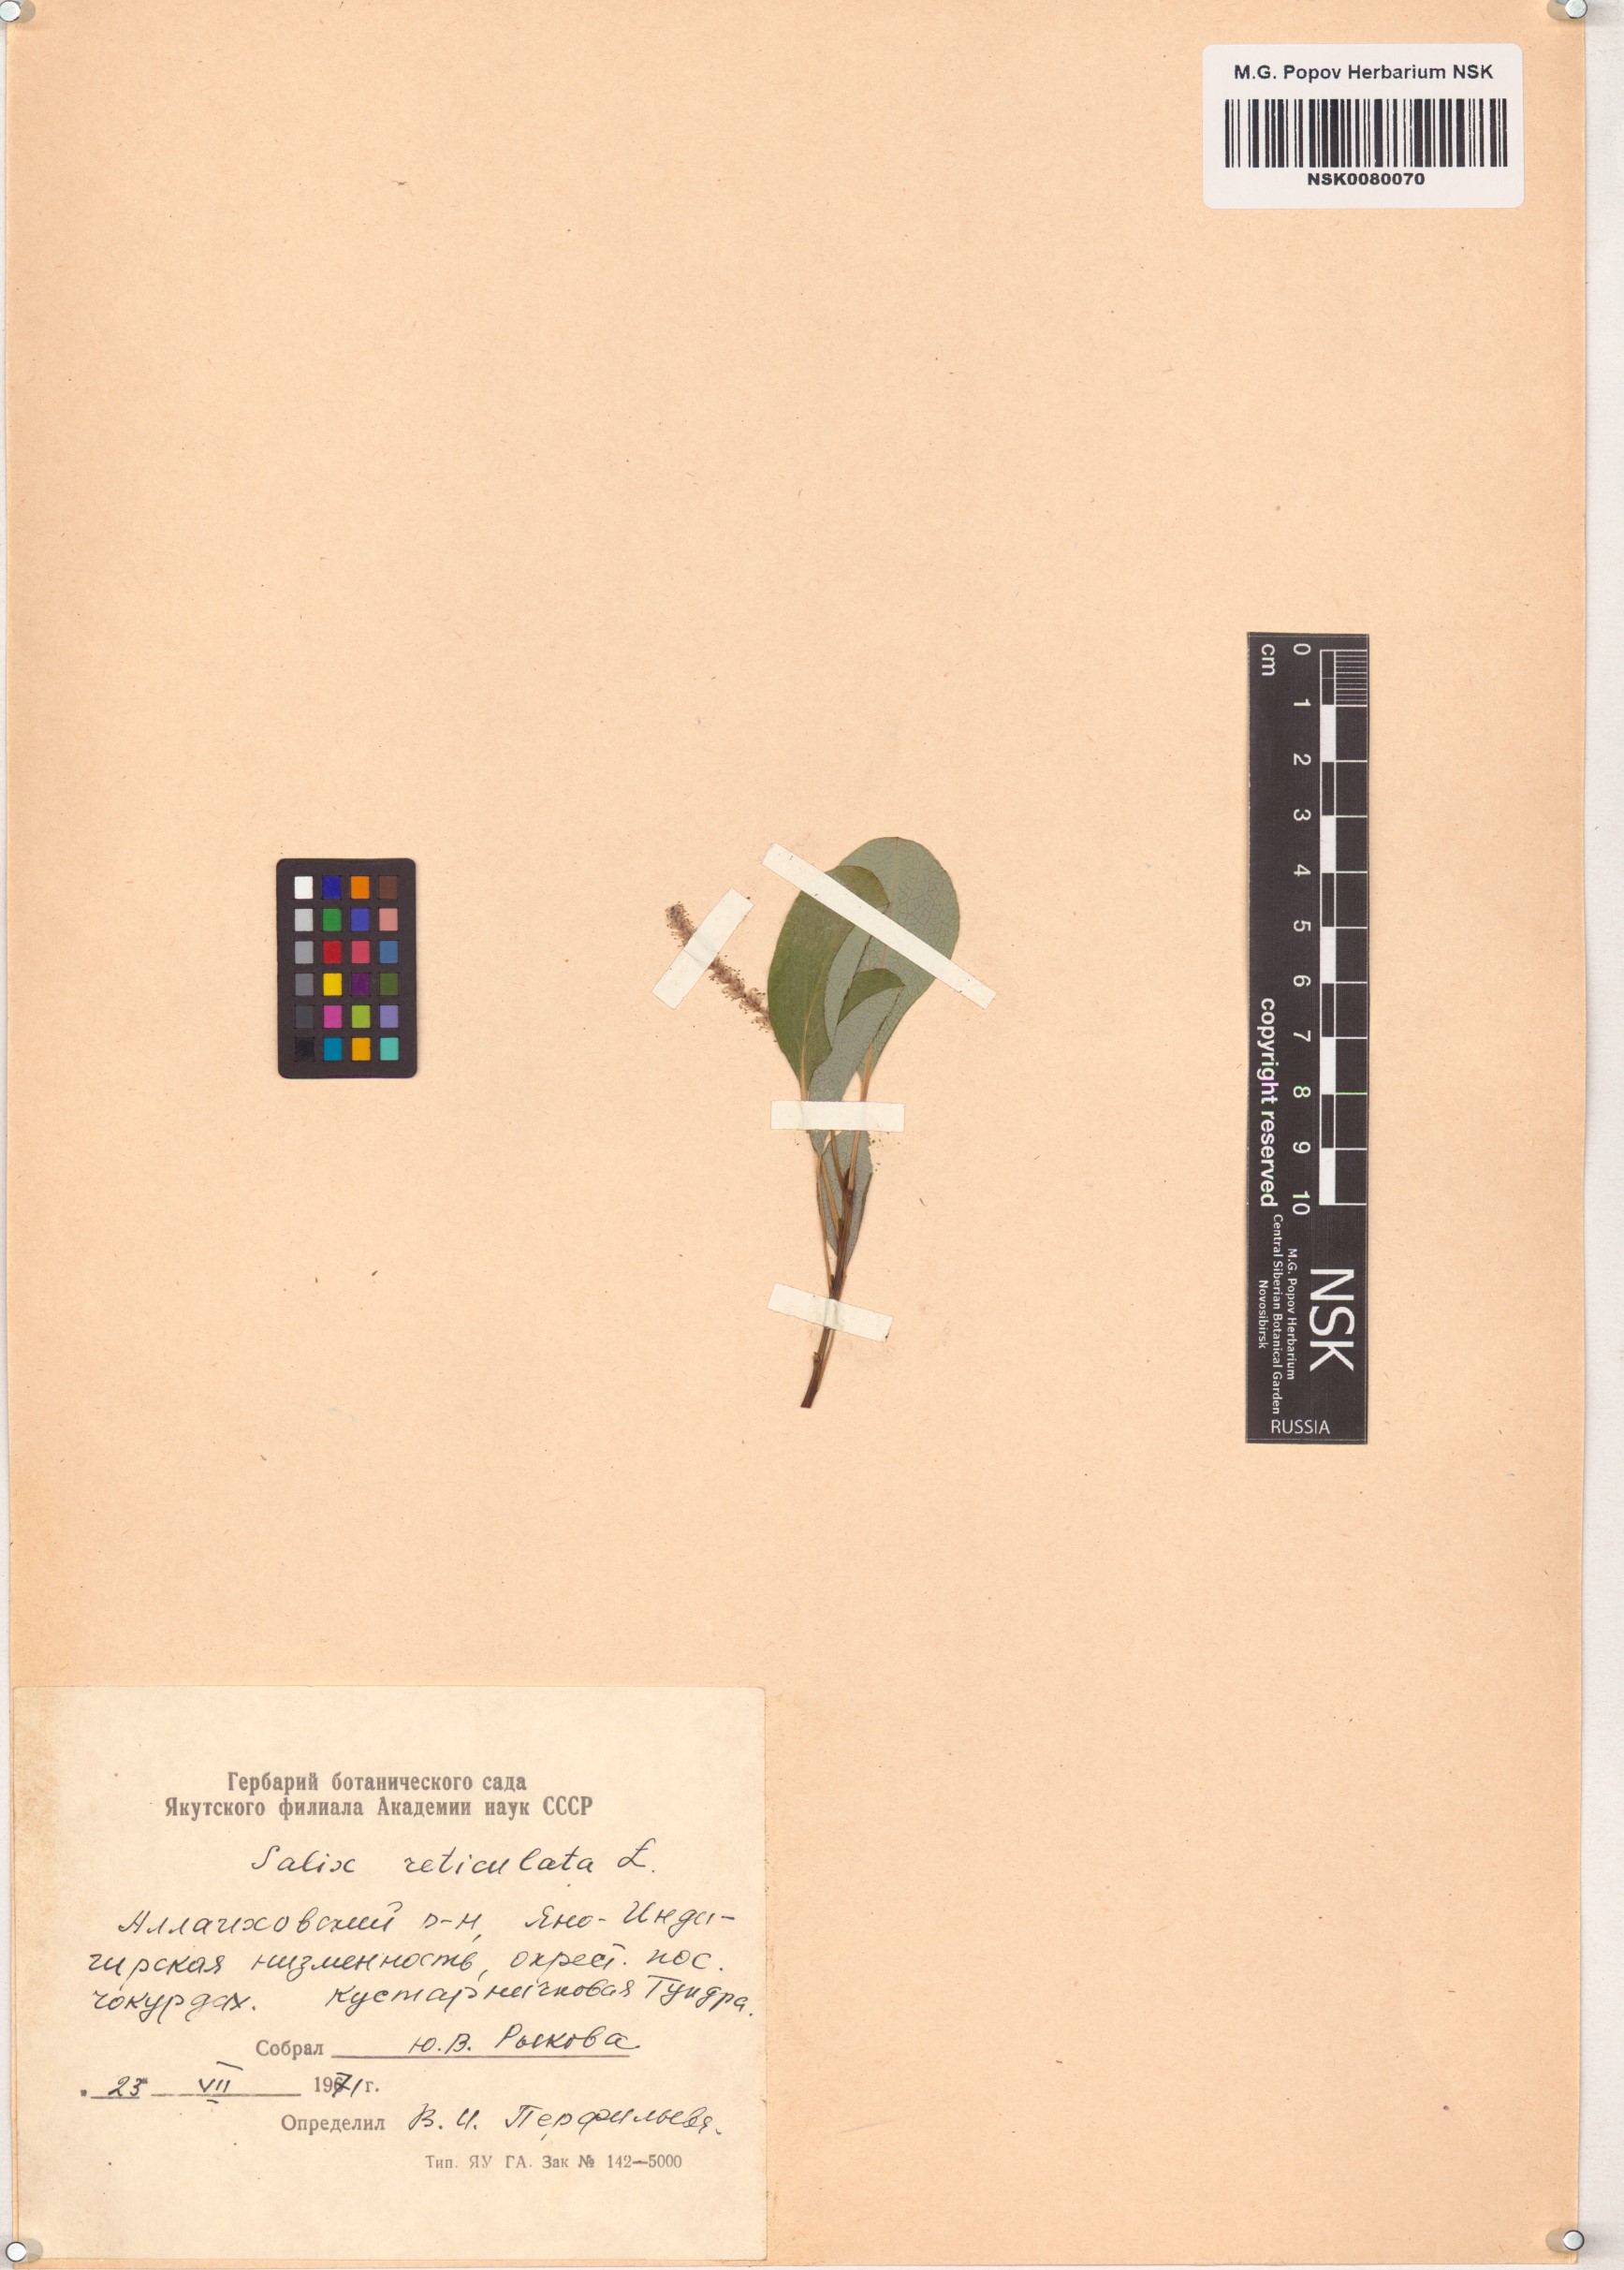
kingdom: Plantae
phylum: Tracheophyta
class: Magnoliopsida
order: Malpighiales
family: Salicaceae
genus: Salix
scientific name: Salix reticulata
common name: Net-leaved willow
